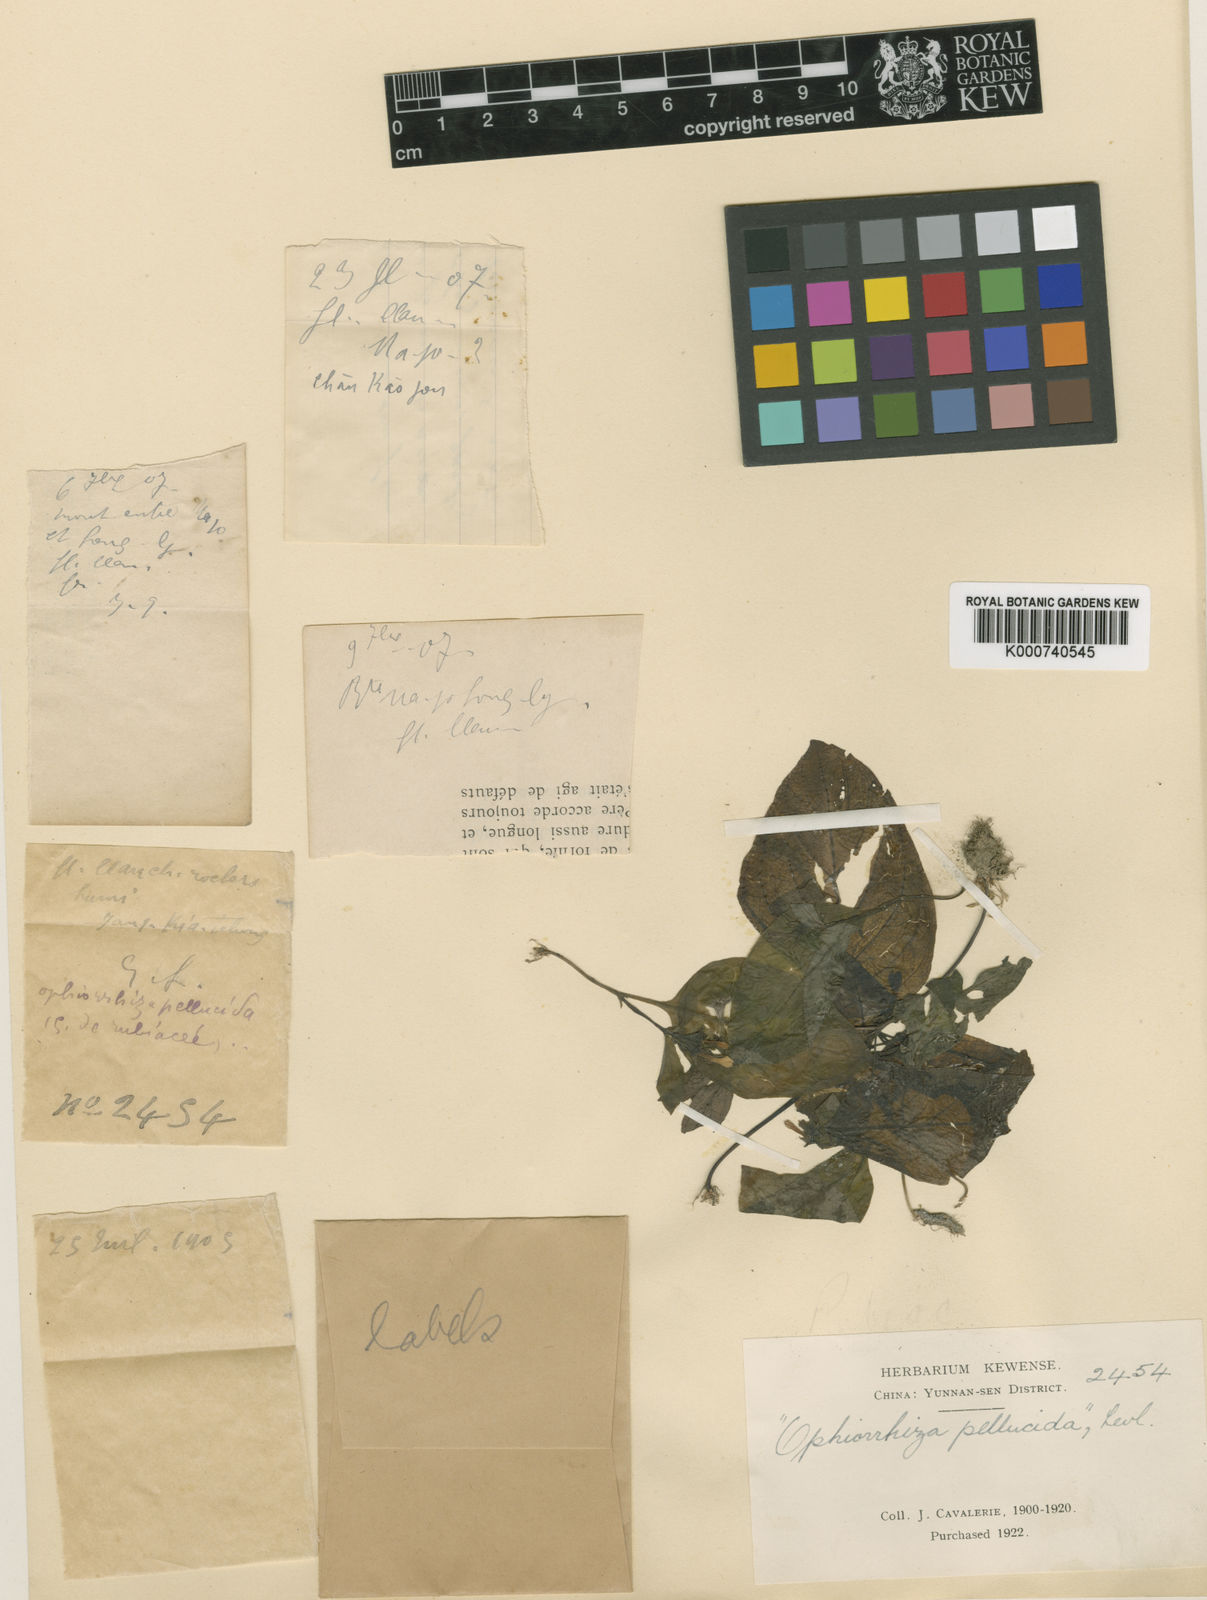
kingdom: Plantae
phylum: Tracheophyta
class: Magnoliopsida
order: Gentianales
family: Rubiaceae
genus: Ophiorrhiza
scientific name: Ophiorrhiza
